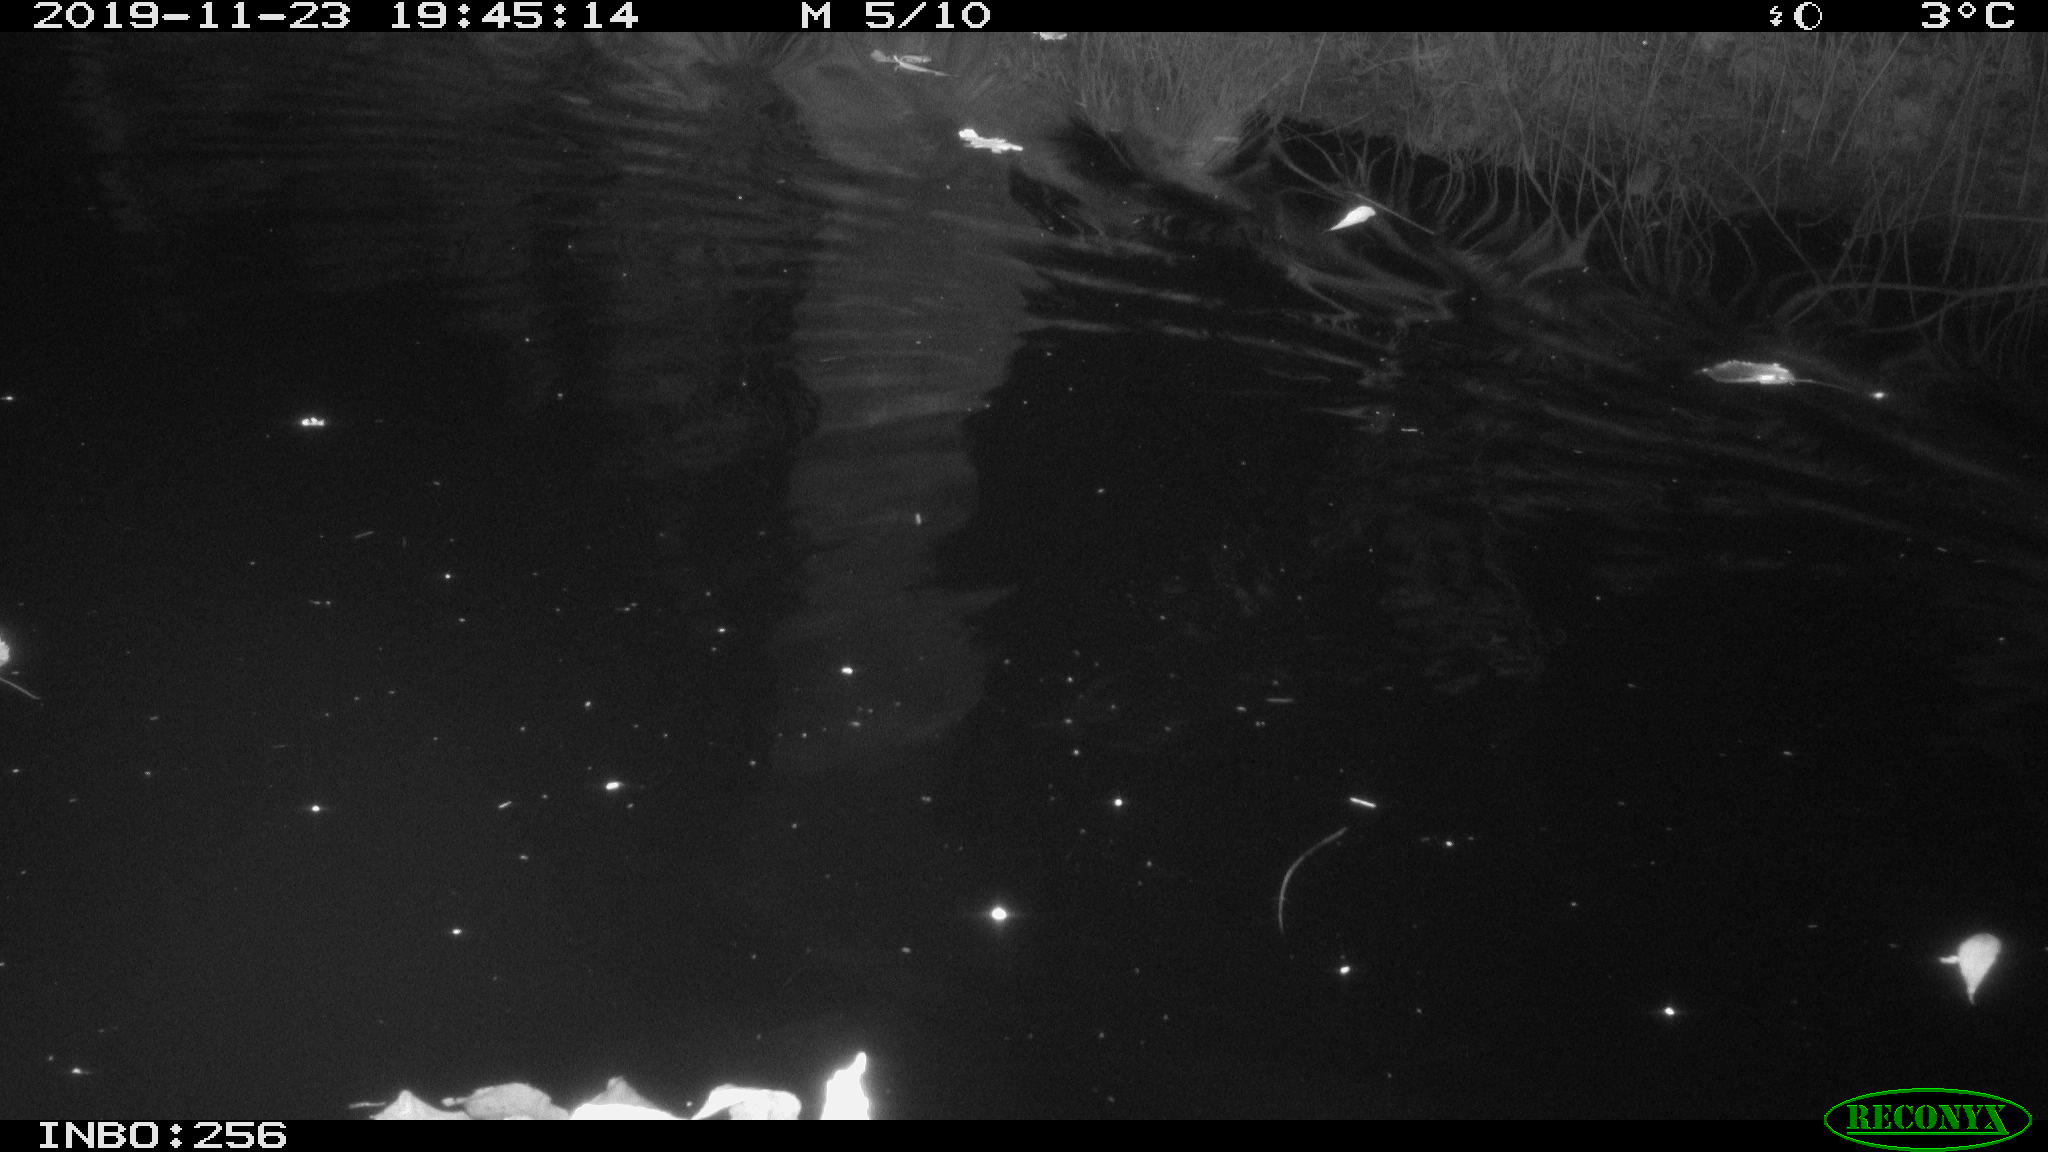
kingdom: Animalia
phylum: Chordata
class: Mammalia
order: Rodentia
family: Cricetidae
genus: Ondatra
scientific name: Ondatra zibethicus
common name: Muskrat
